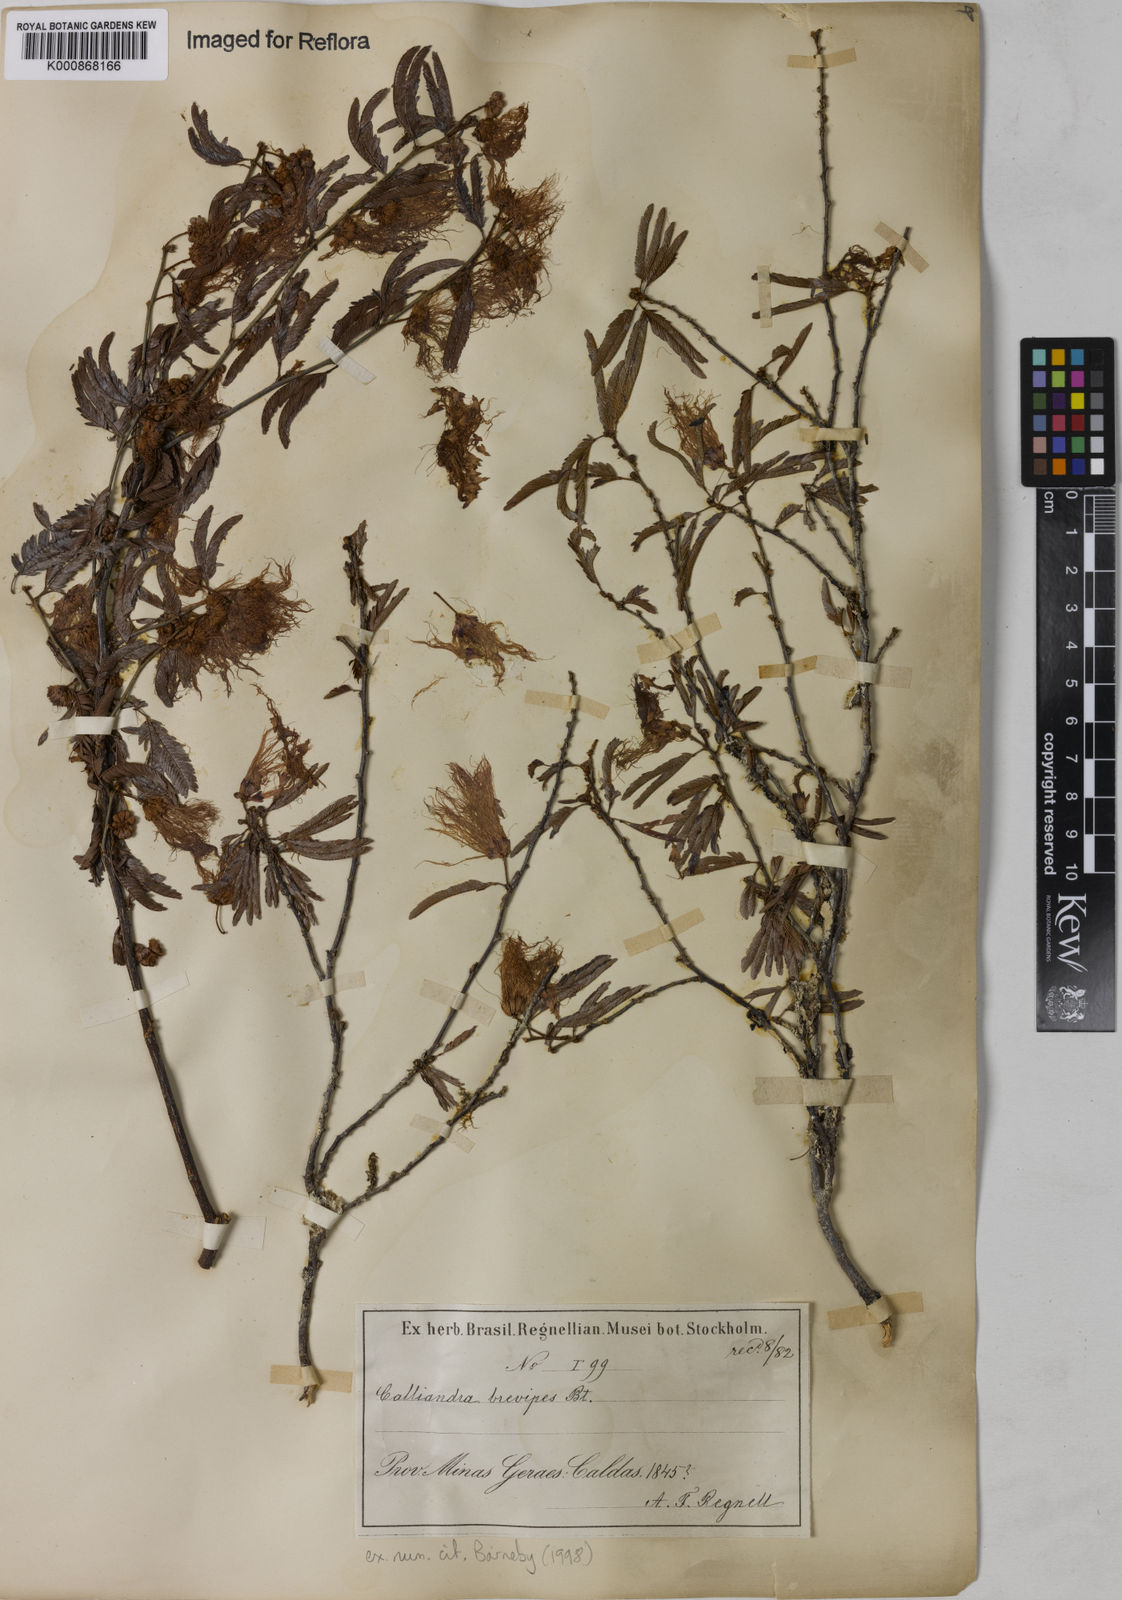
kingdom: Plantae
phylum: Tracheophyta
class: Magnoliopsida
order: Fabales
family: Fabaceae
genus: Calliandra
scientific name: Calliandra selloi
